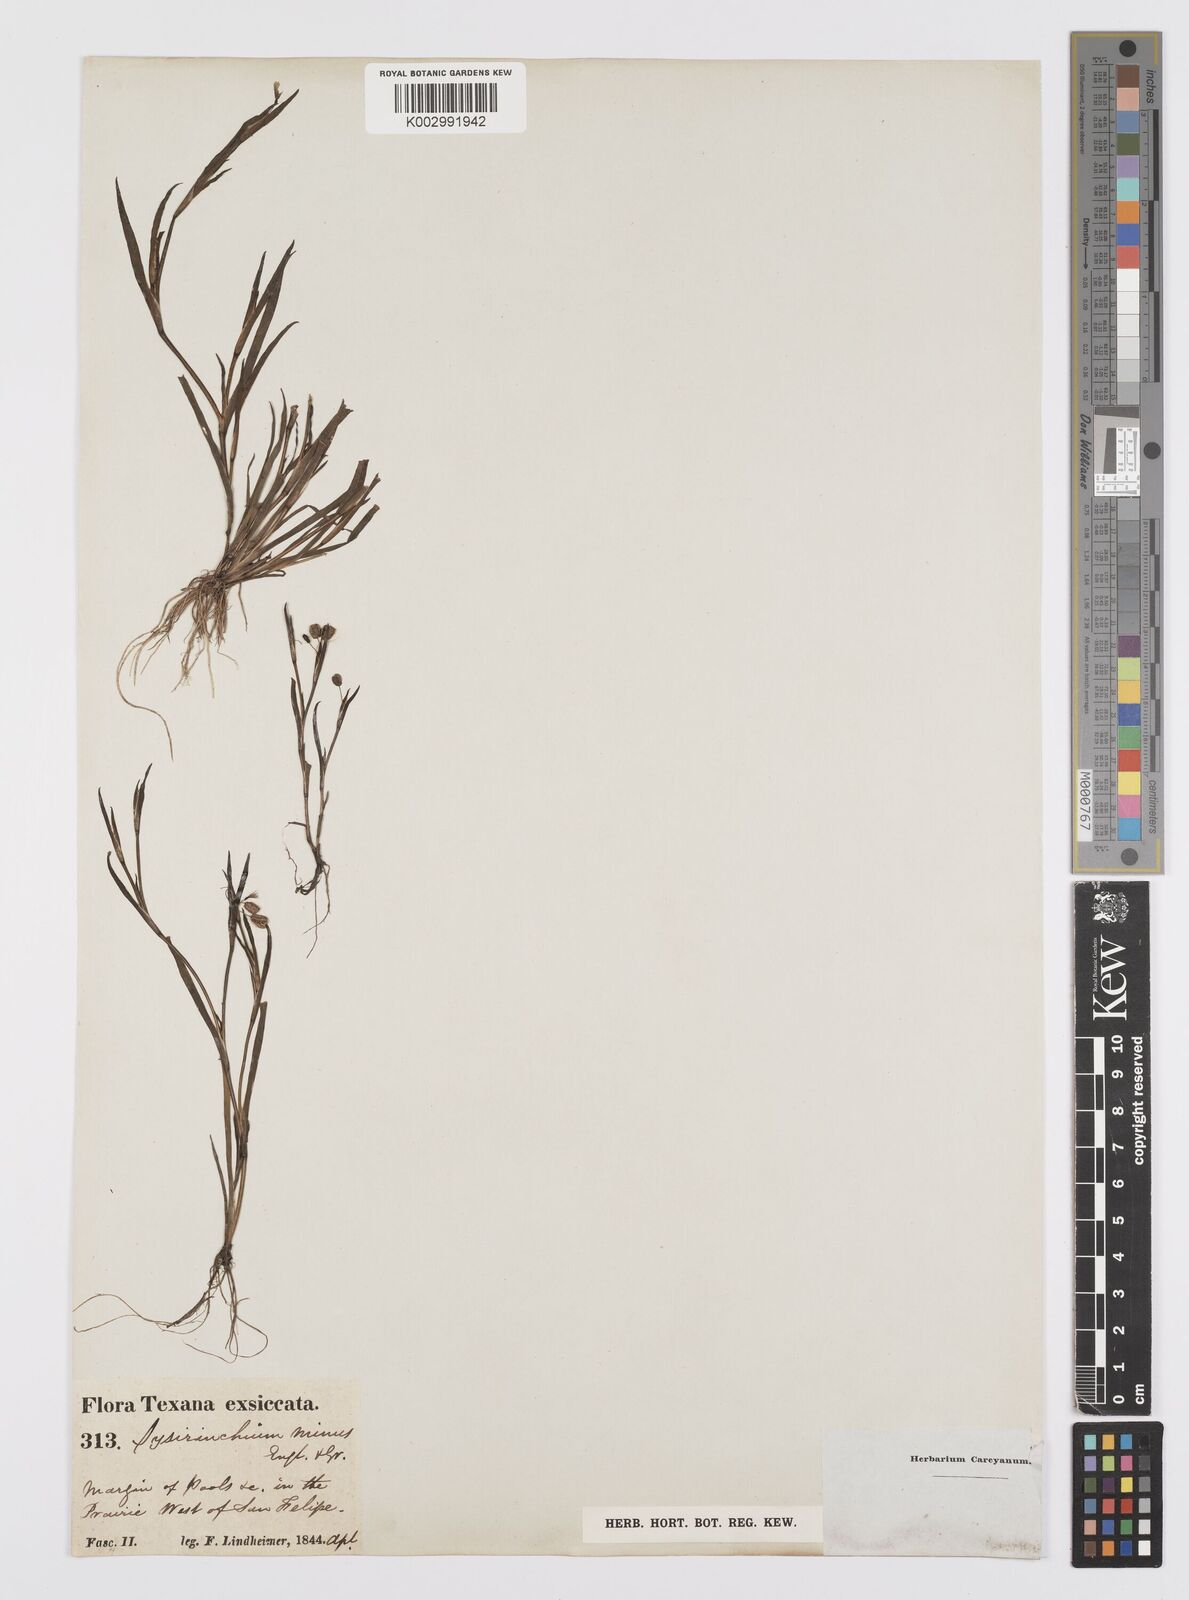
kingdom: Plantae
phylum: Tracheophyta
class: Liliopsida
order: Asparagales
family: Iridaceae
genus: Sisyrinchium
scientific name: Sisyrinchium minus
